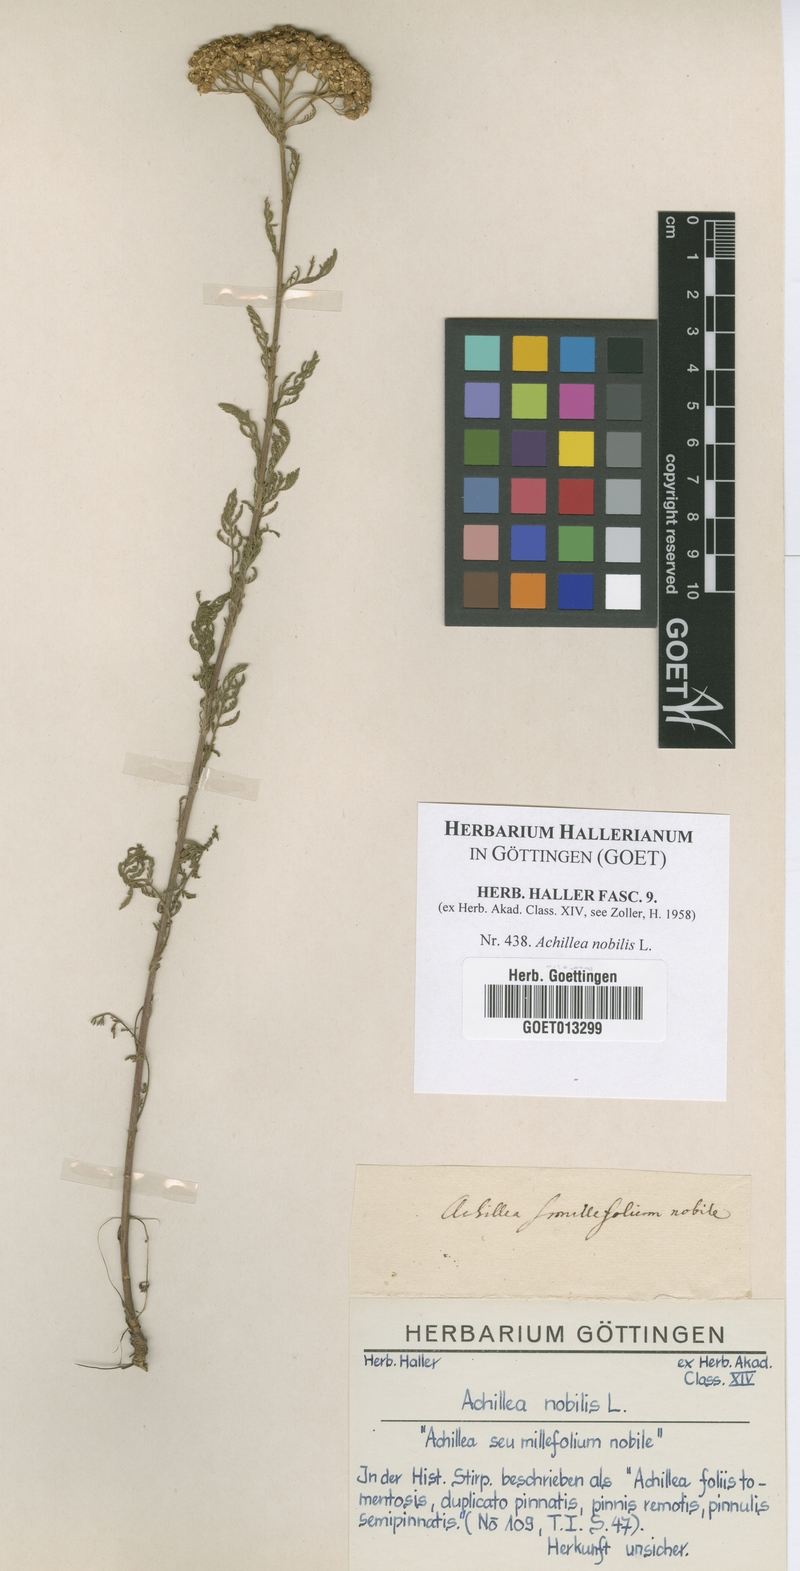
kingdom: Plantae
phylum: Tracheophyta
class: Magnoliopsida
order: Asterales
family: Asteraceae
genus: Achillea
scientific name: Achillea nobilis
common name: Noble yarrow
